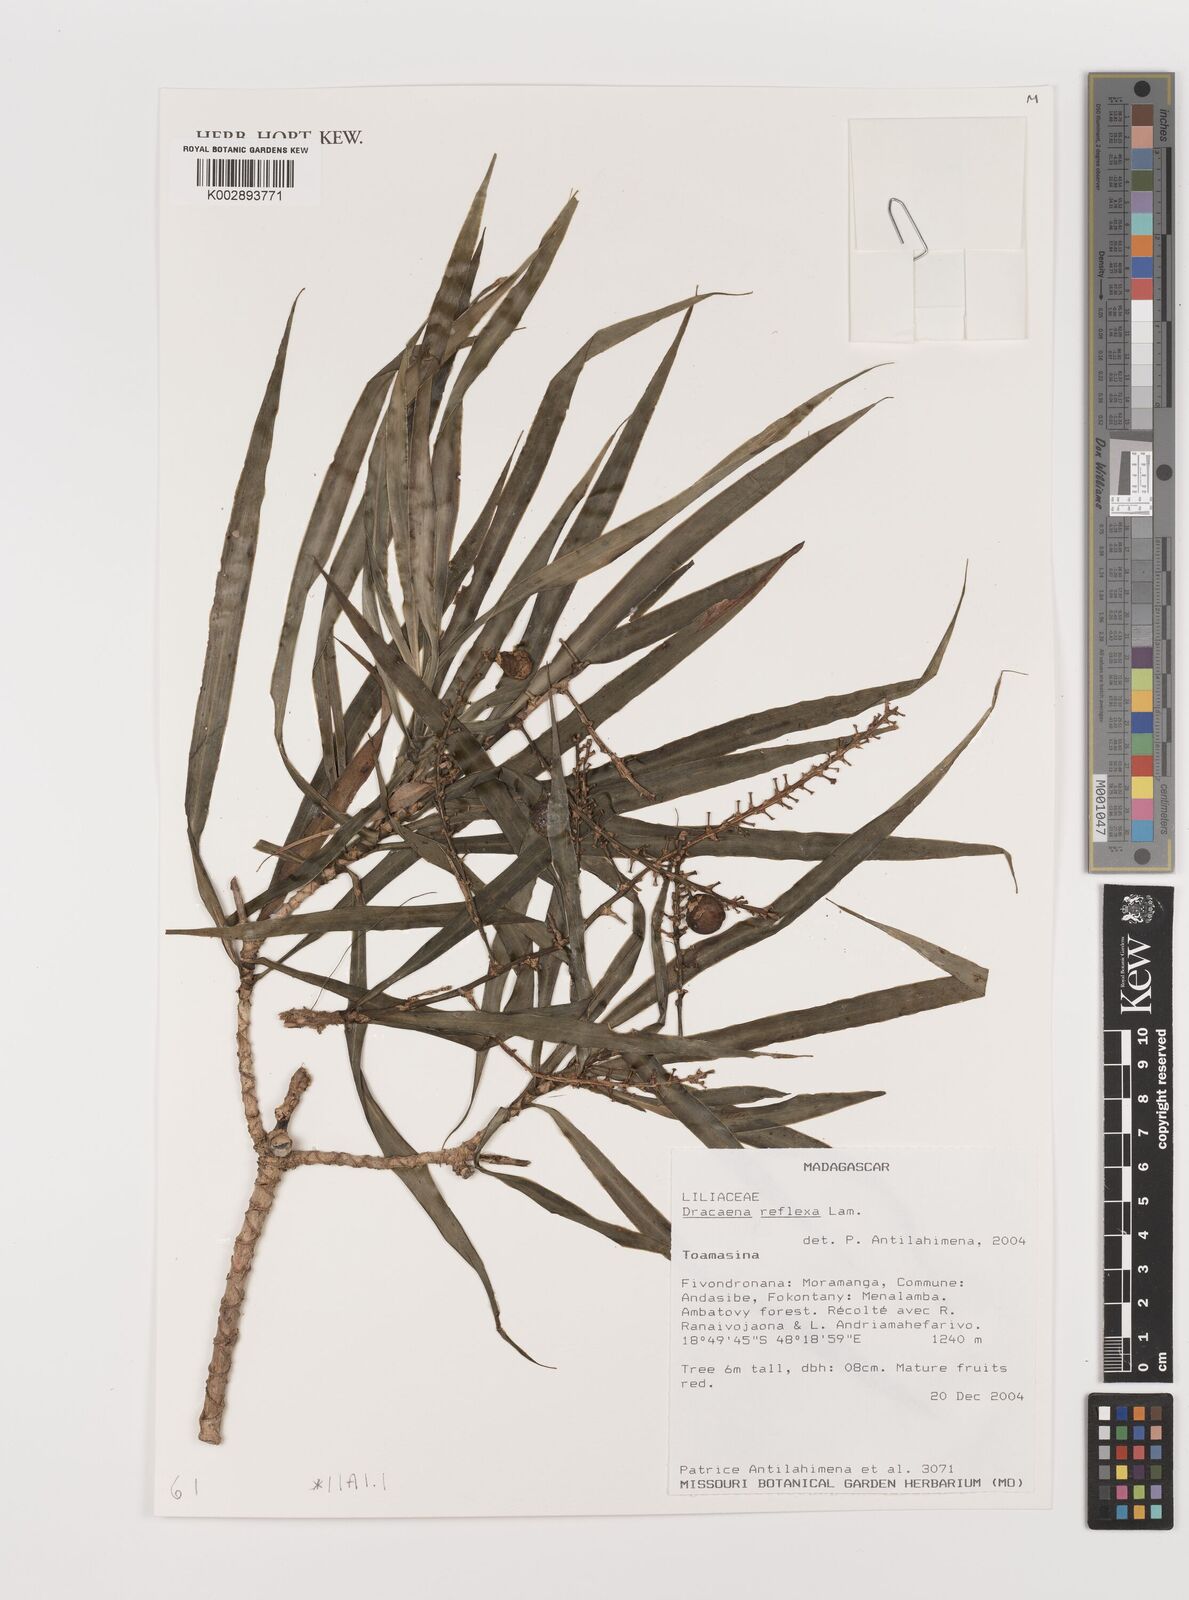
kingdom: Plantae
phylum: Tracheophyta
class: Liliopsida
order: Asparagales
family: Asparagaceae
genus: Dracaena
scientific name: Dracaena reflexa
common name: Song-of-india
